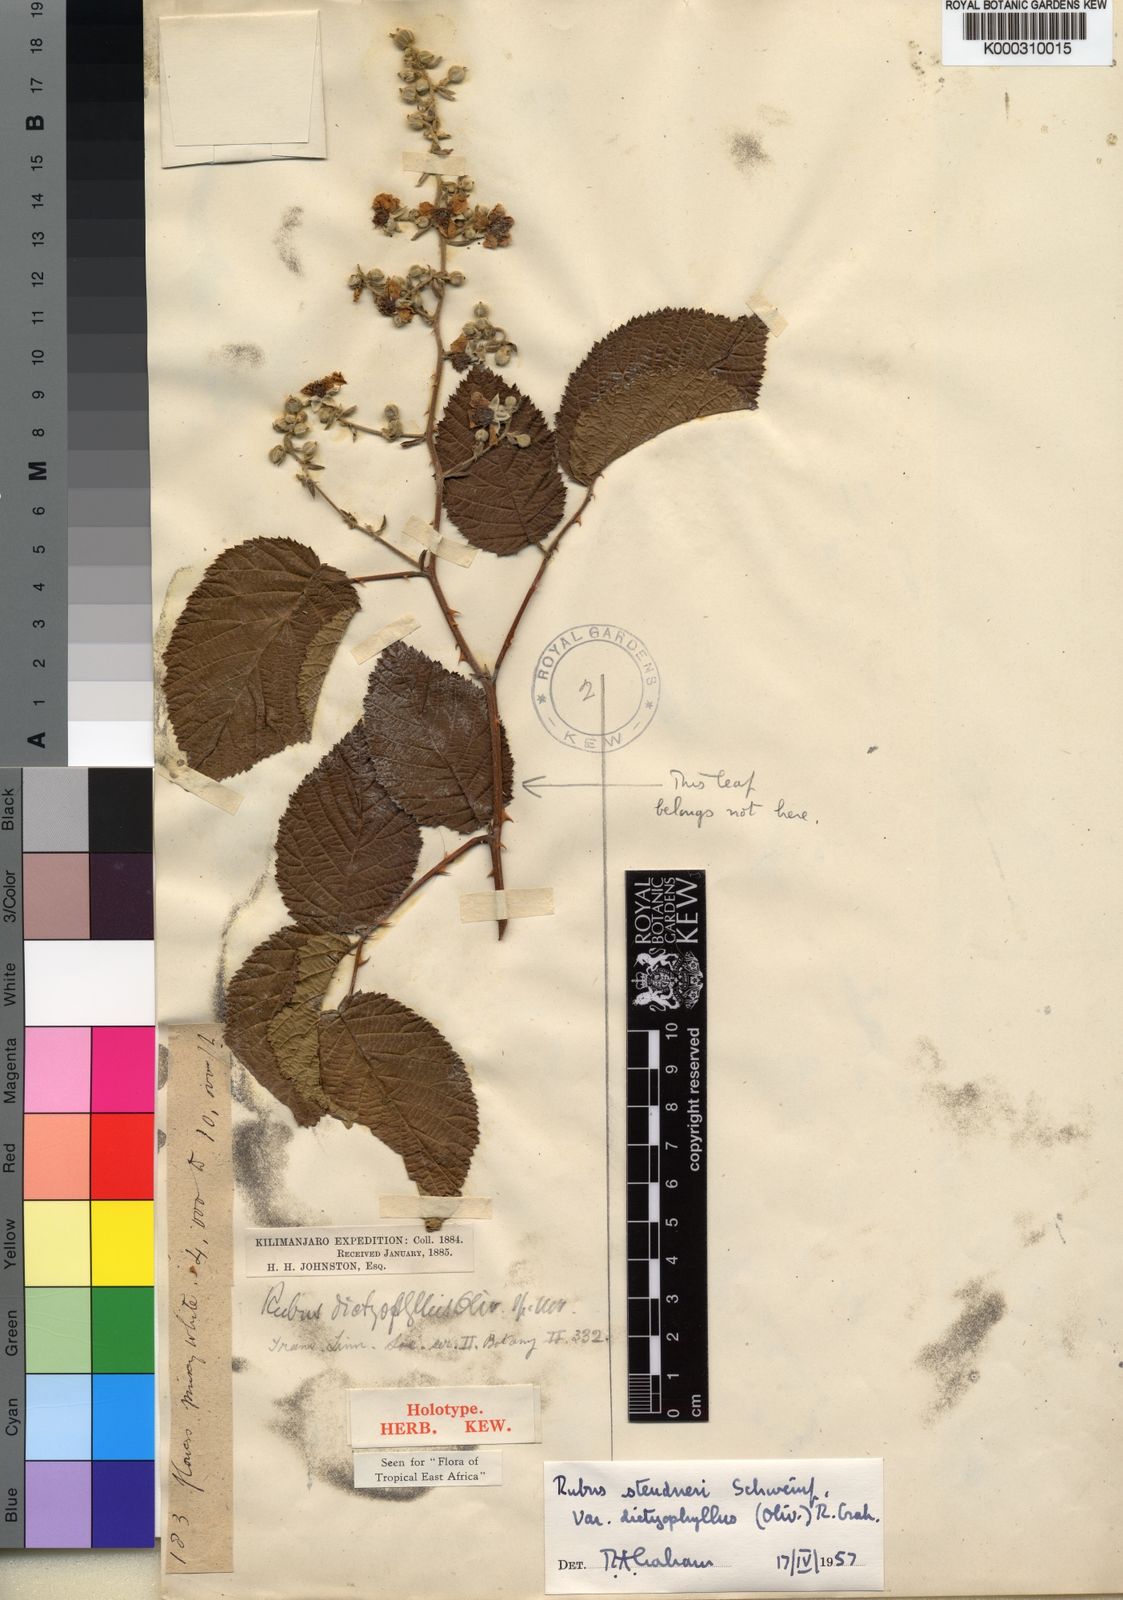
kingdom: Plantae
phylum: Tracheophyta
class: Magnoliopsida
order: Rosales
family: Rosaceae
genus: Rubus
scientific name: Rubus steudneri
